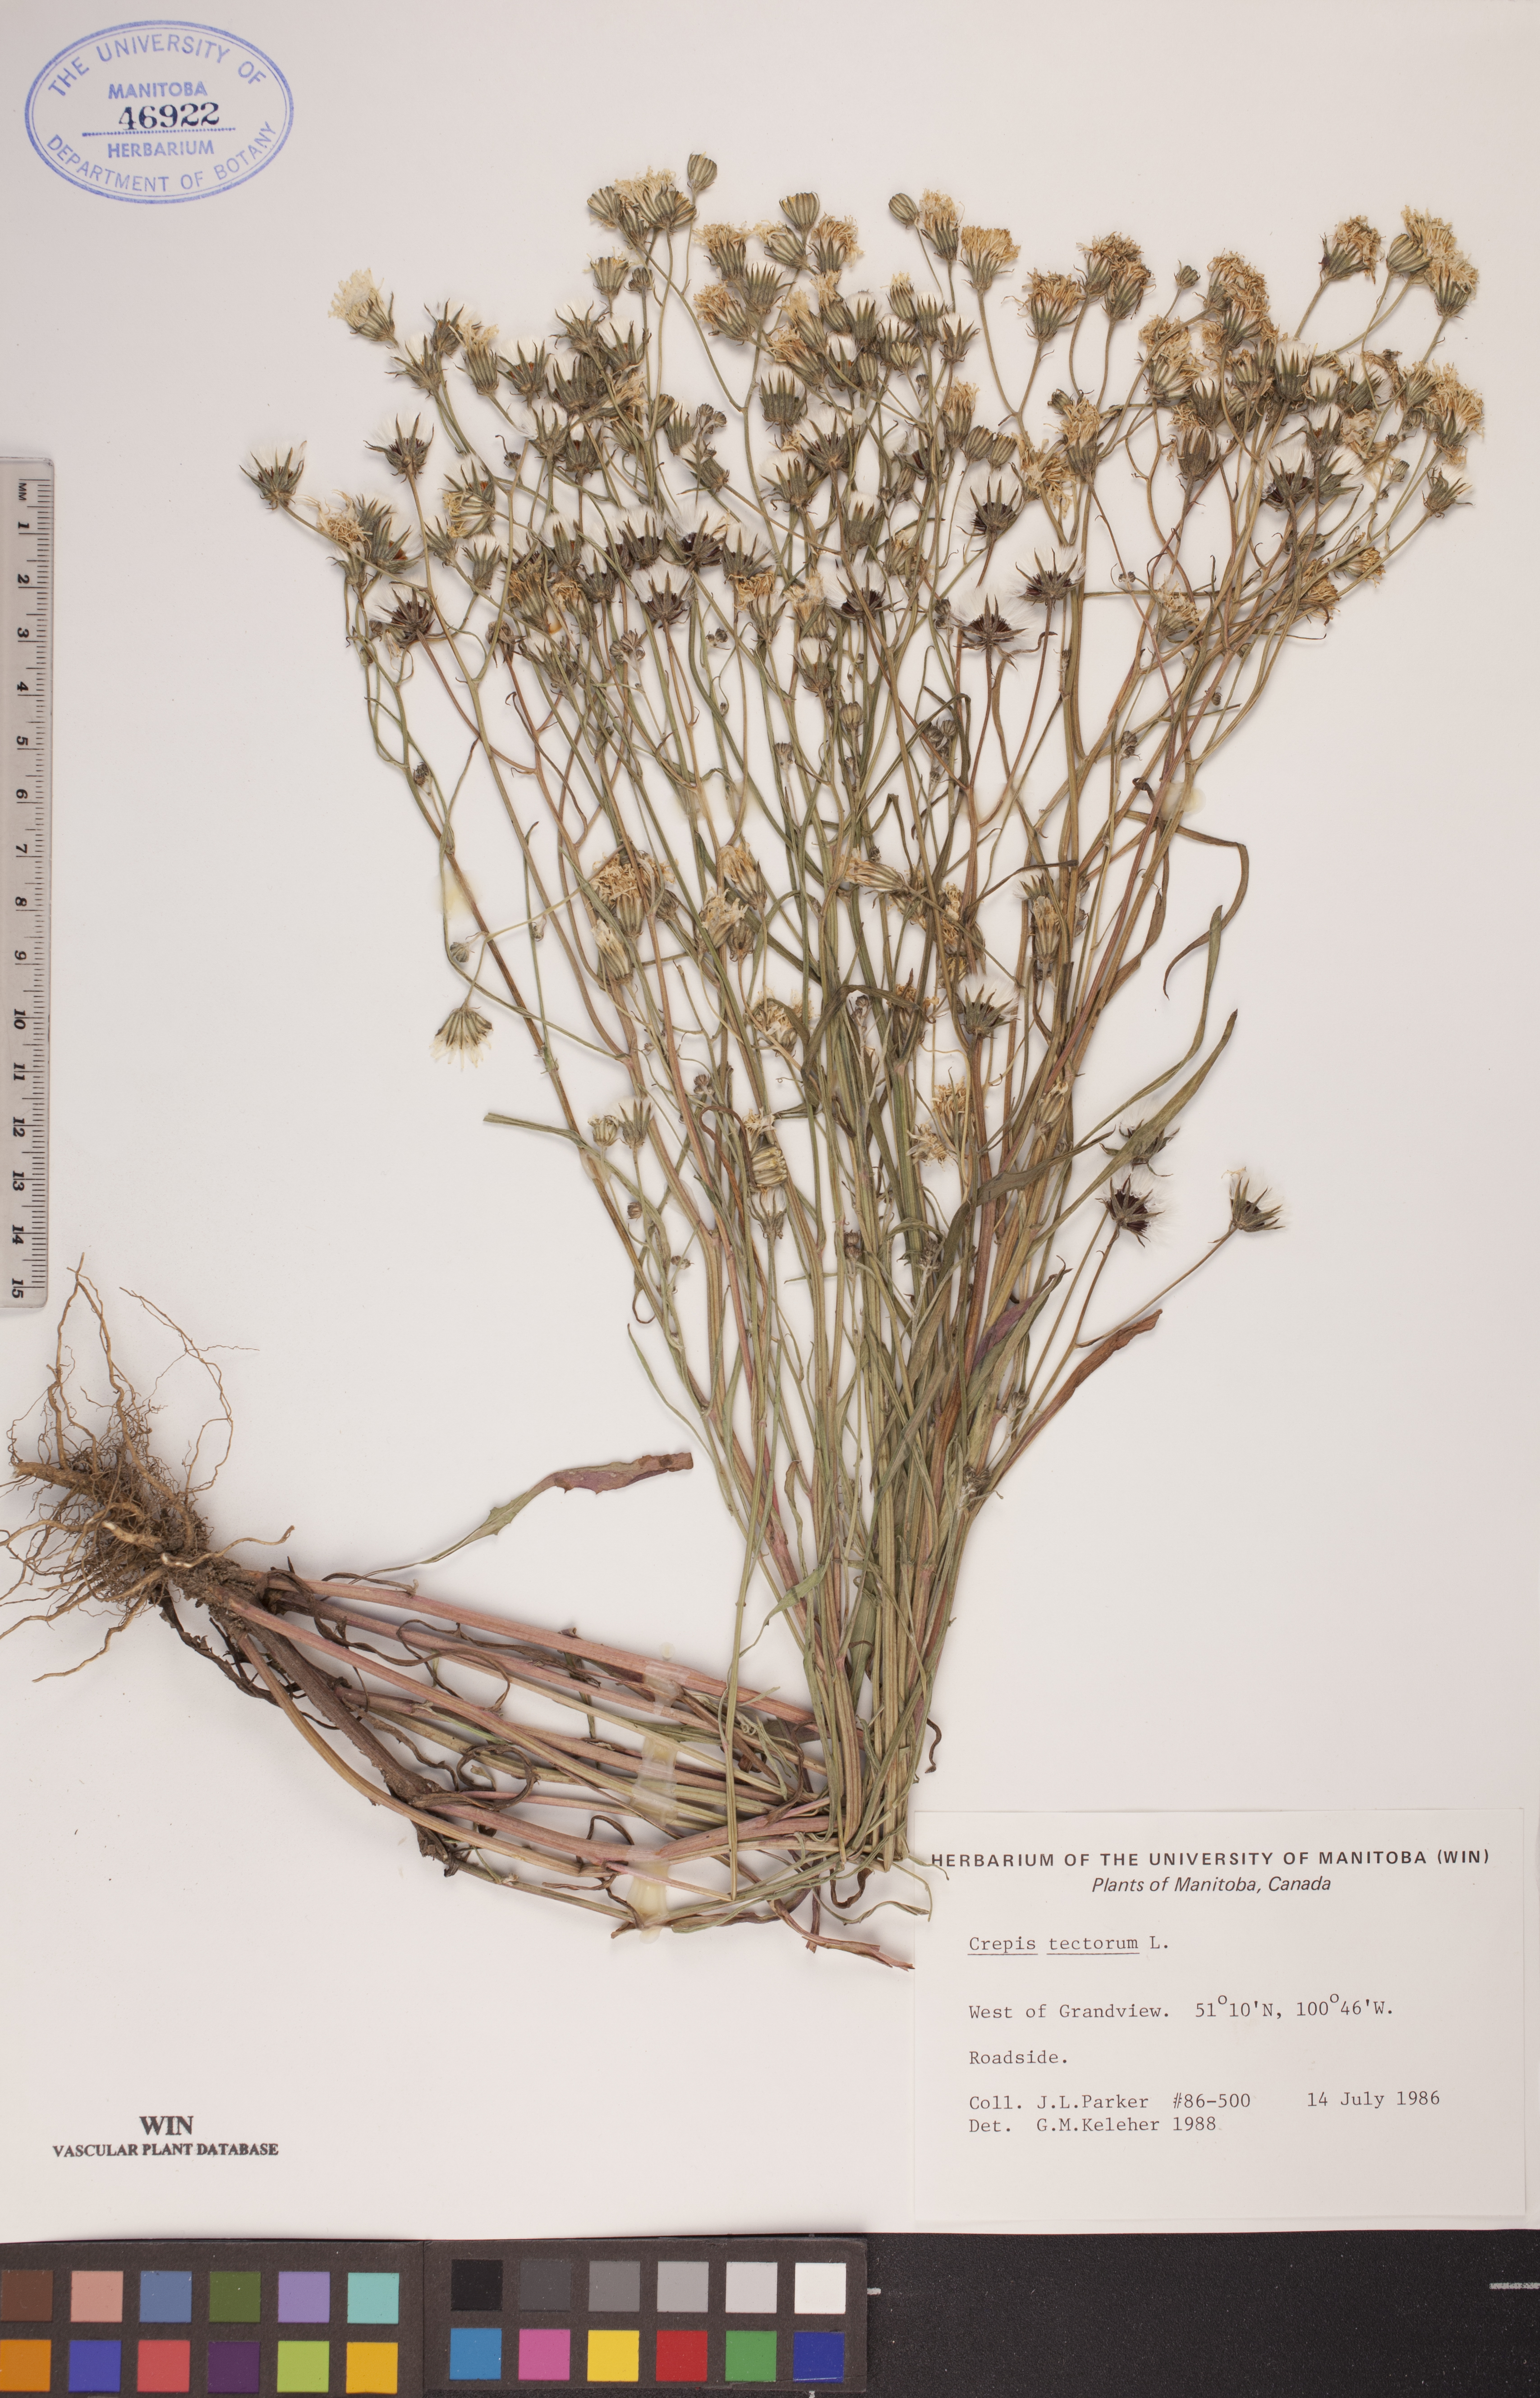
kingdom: Plantae
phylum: Tracheophyta
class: Magnoliopsida
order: Asterales
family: Asteraceae
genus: Crepis
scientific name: Crepis tectorum
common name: Narrow-leaved hawk's-beard
